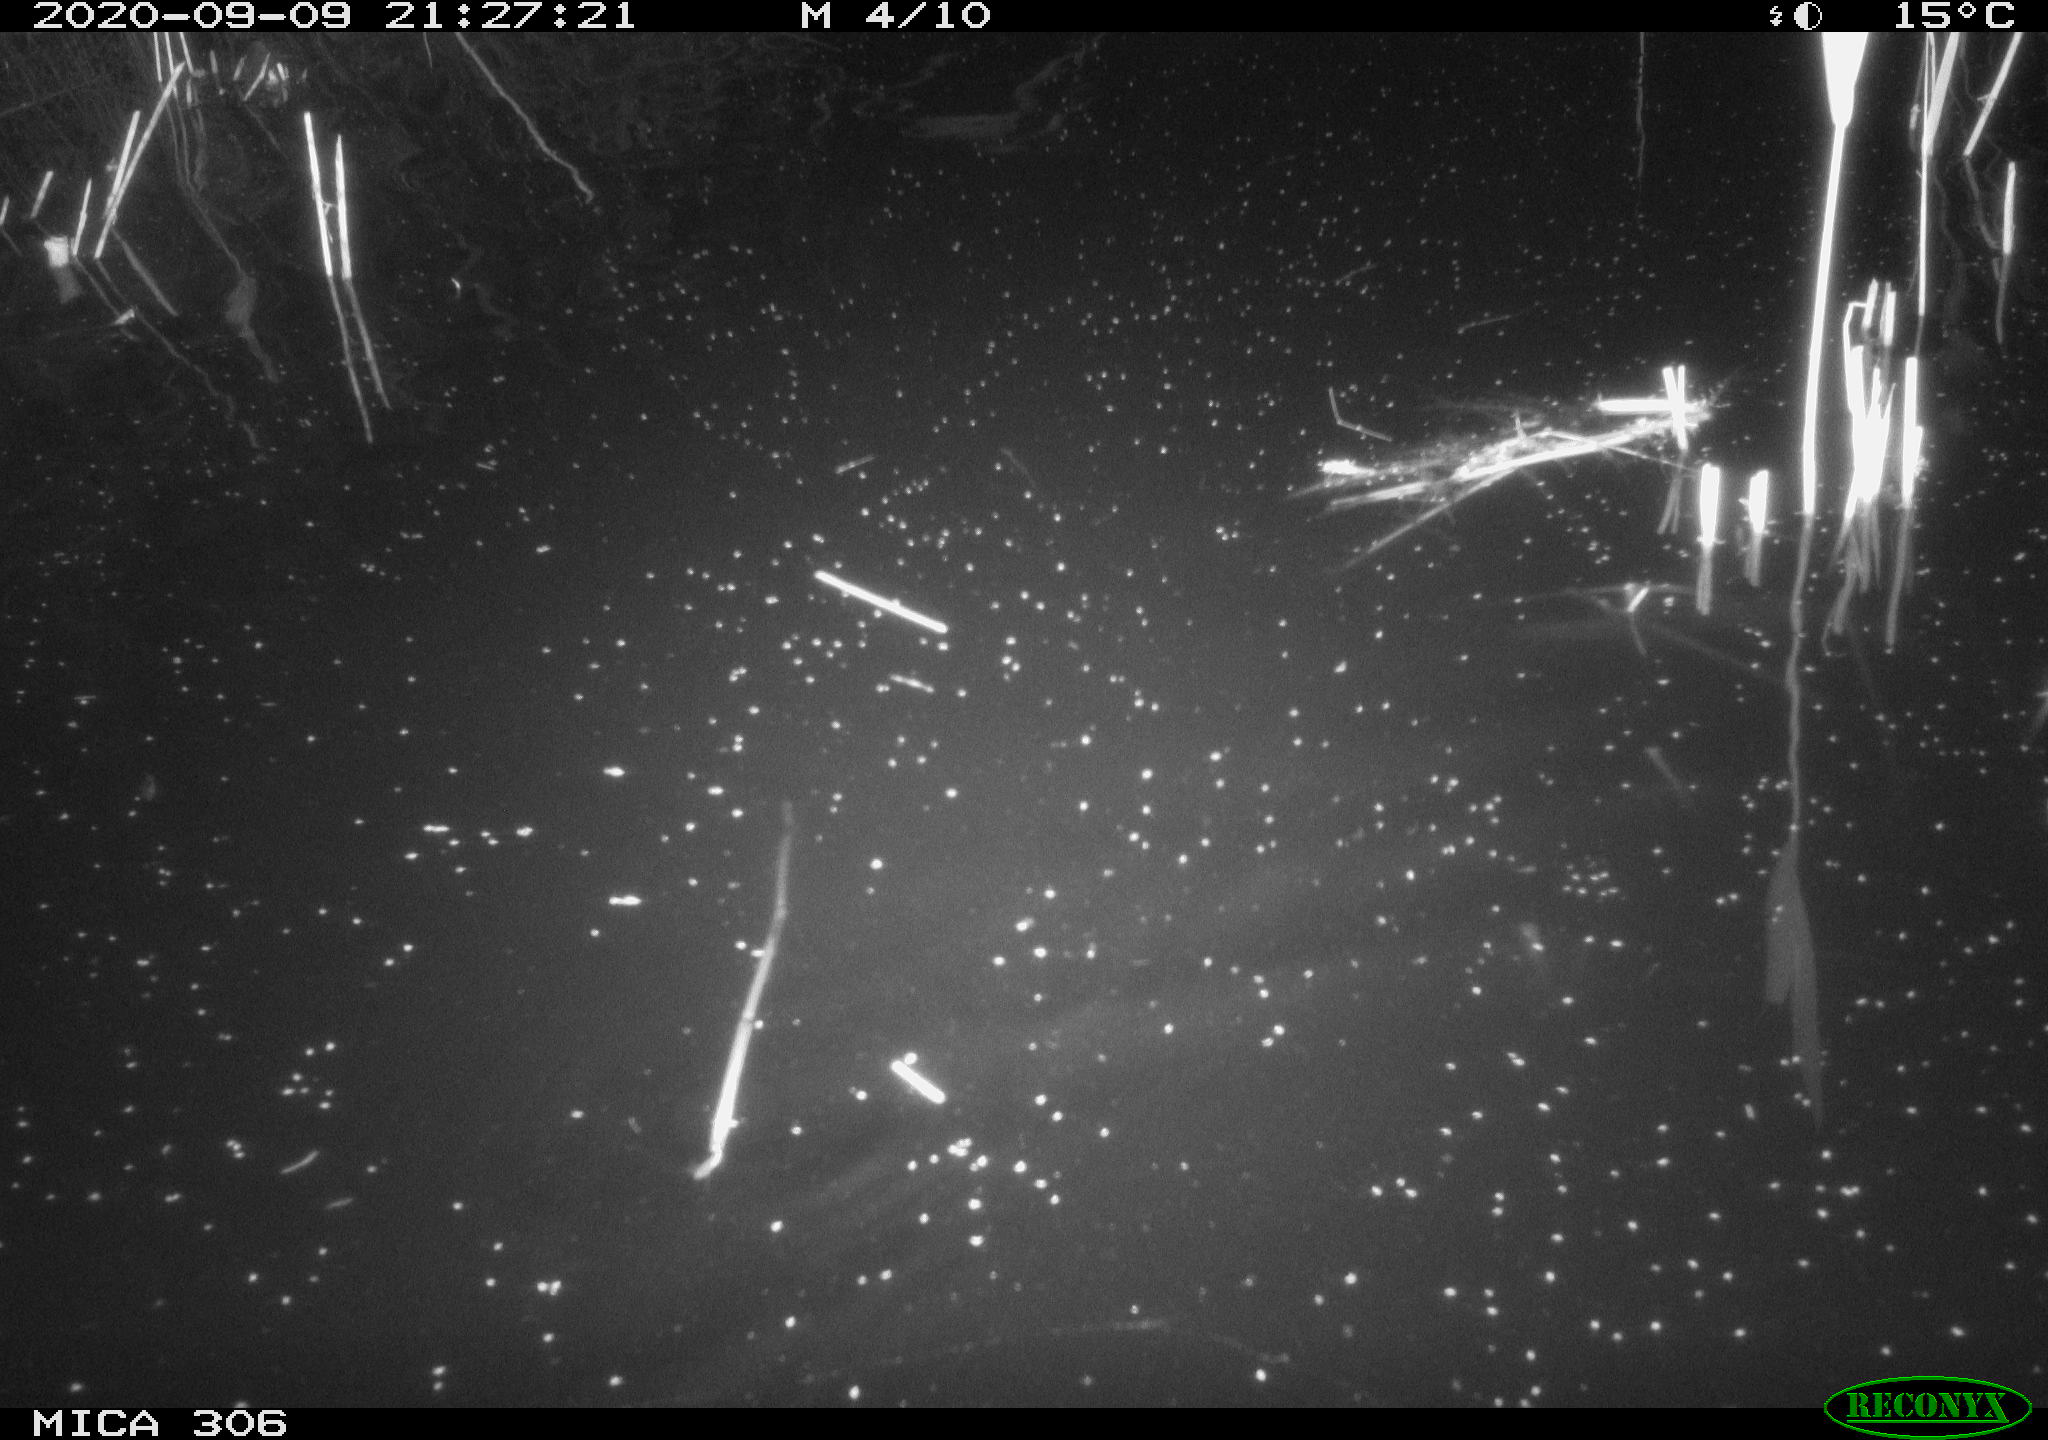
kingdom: Animalia
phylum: Chordata
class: Mammalia
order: Rodentia
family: Muridae
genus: Rattus
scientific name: Rattus norvegicus
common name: Brown rat
